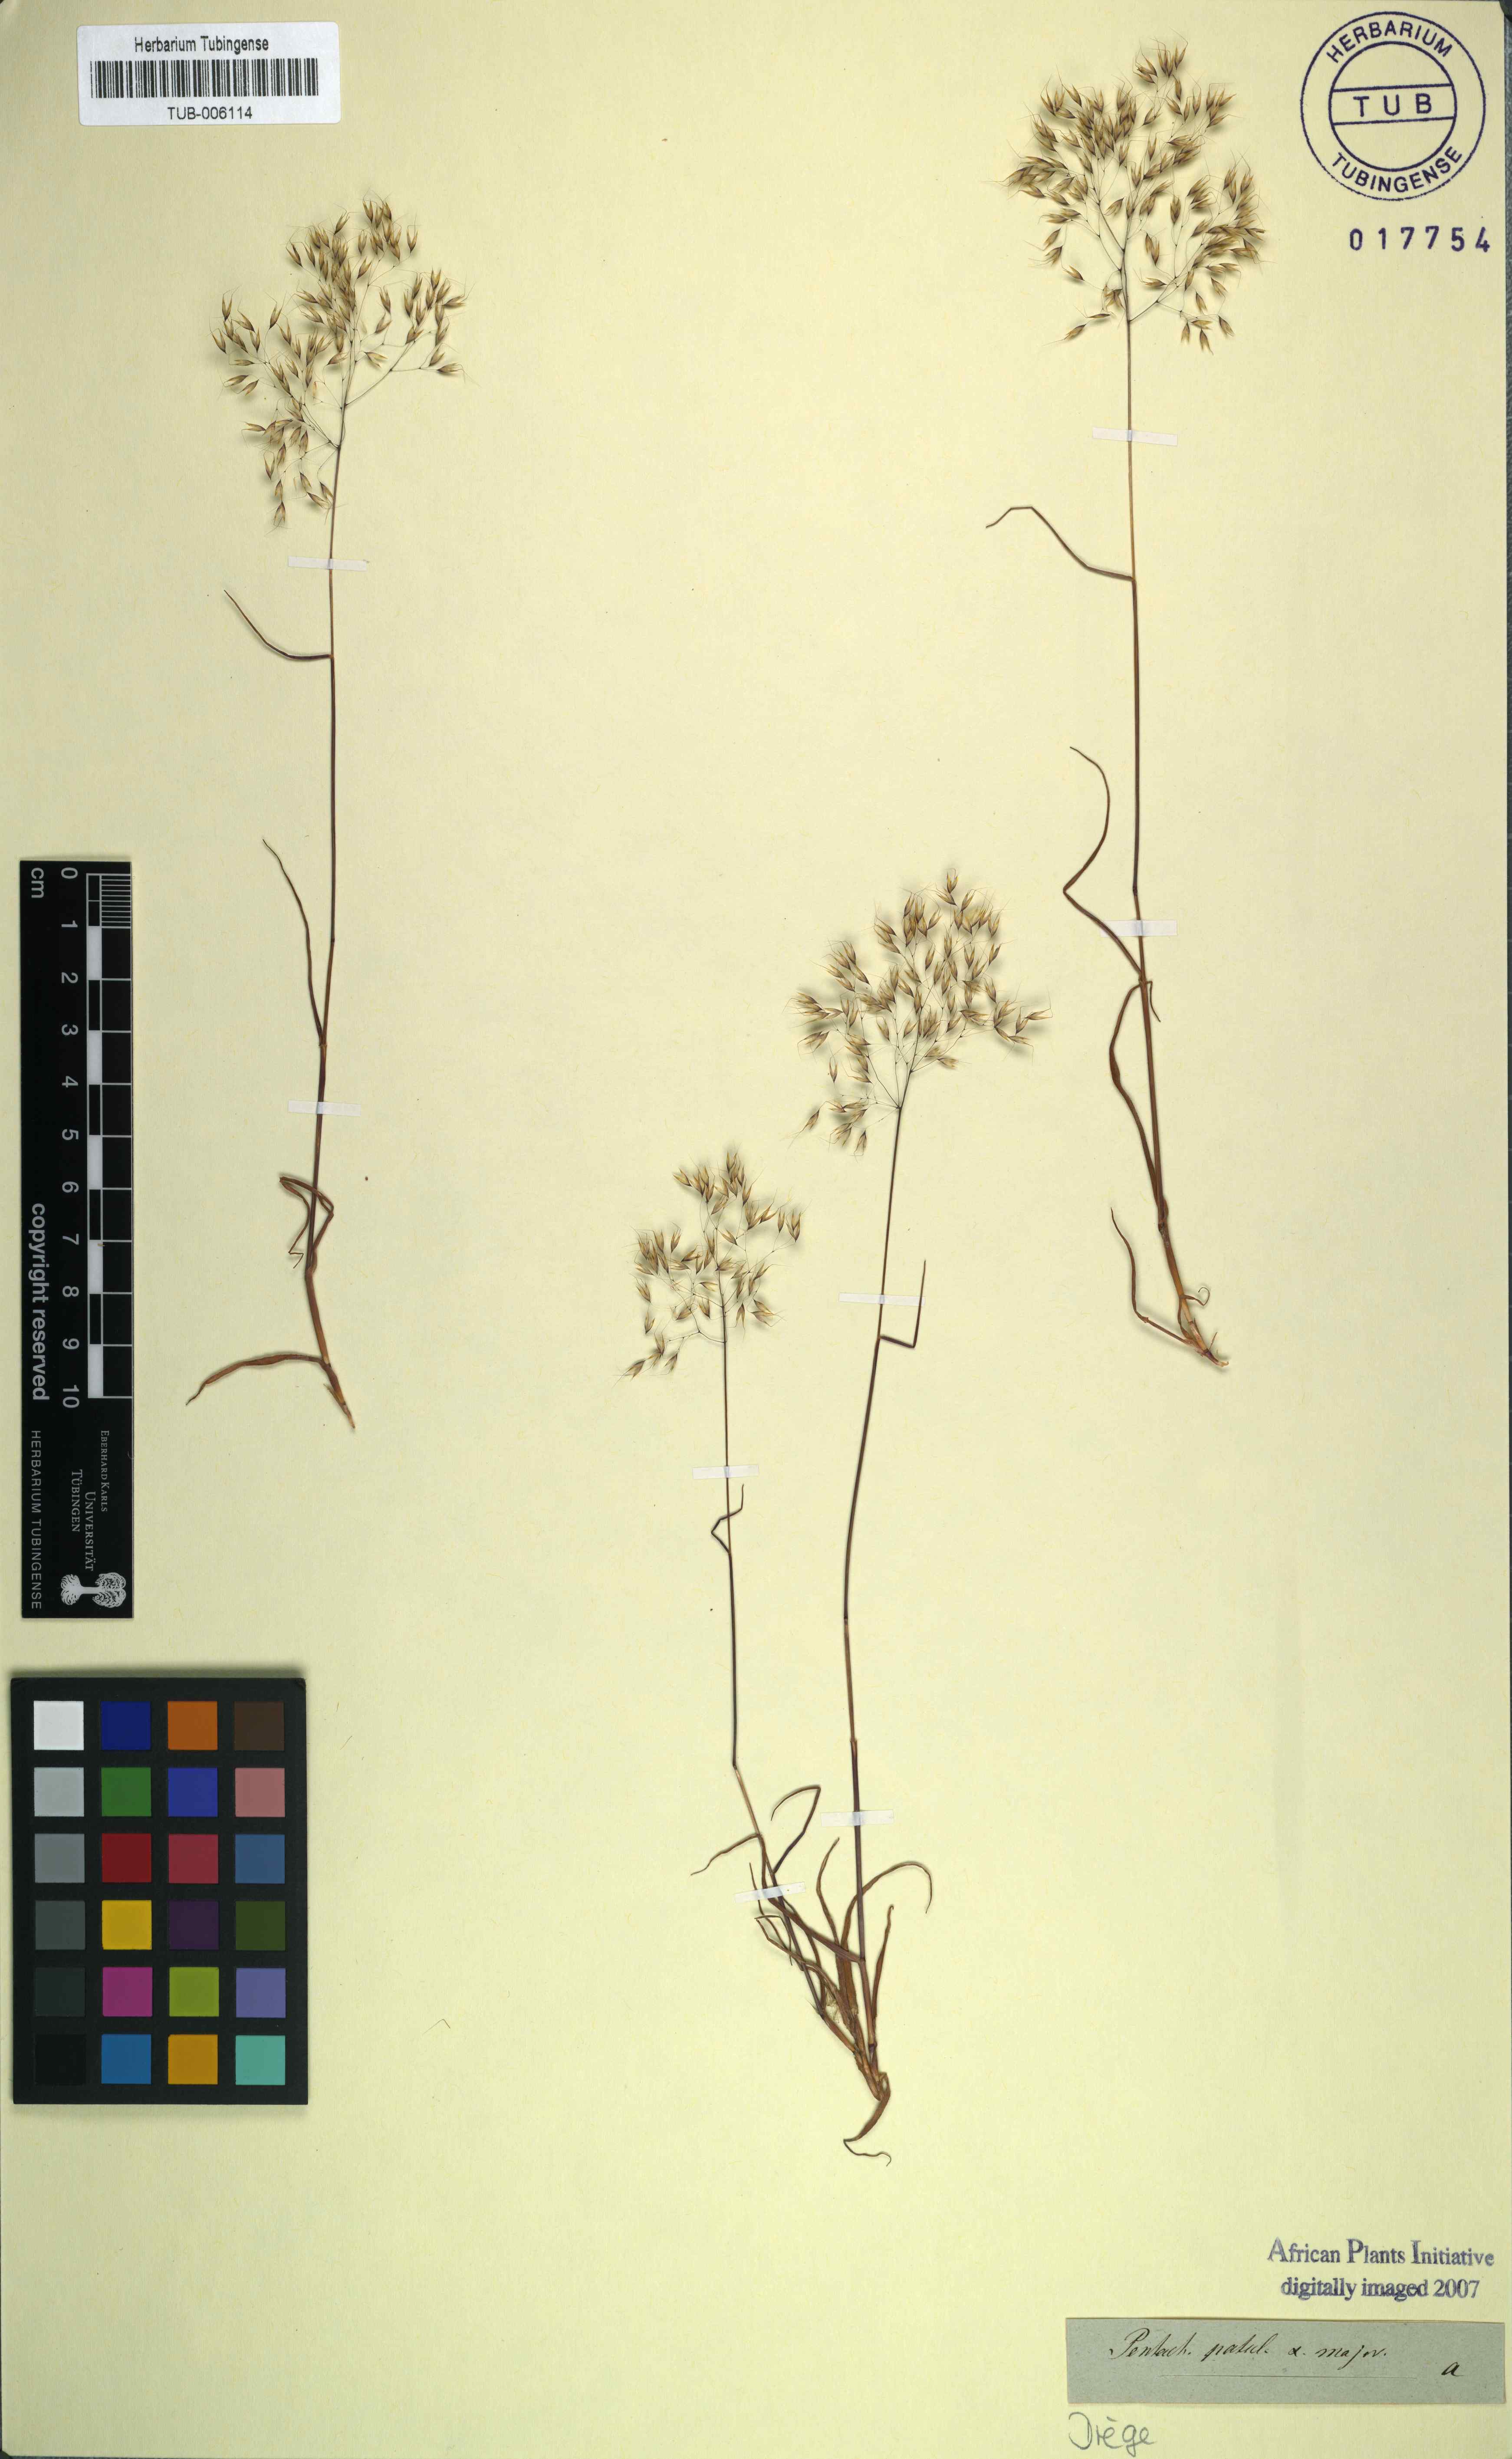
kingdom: Plantae
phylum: Tracheophyta
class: Liliopsida
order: Poales
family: Poaceae
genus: Pentameris
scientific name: Pentameris patula
